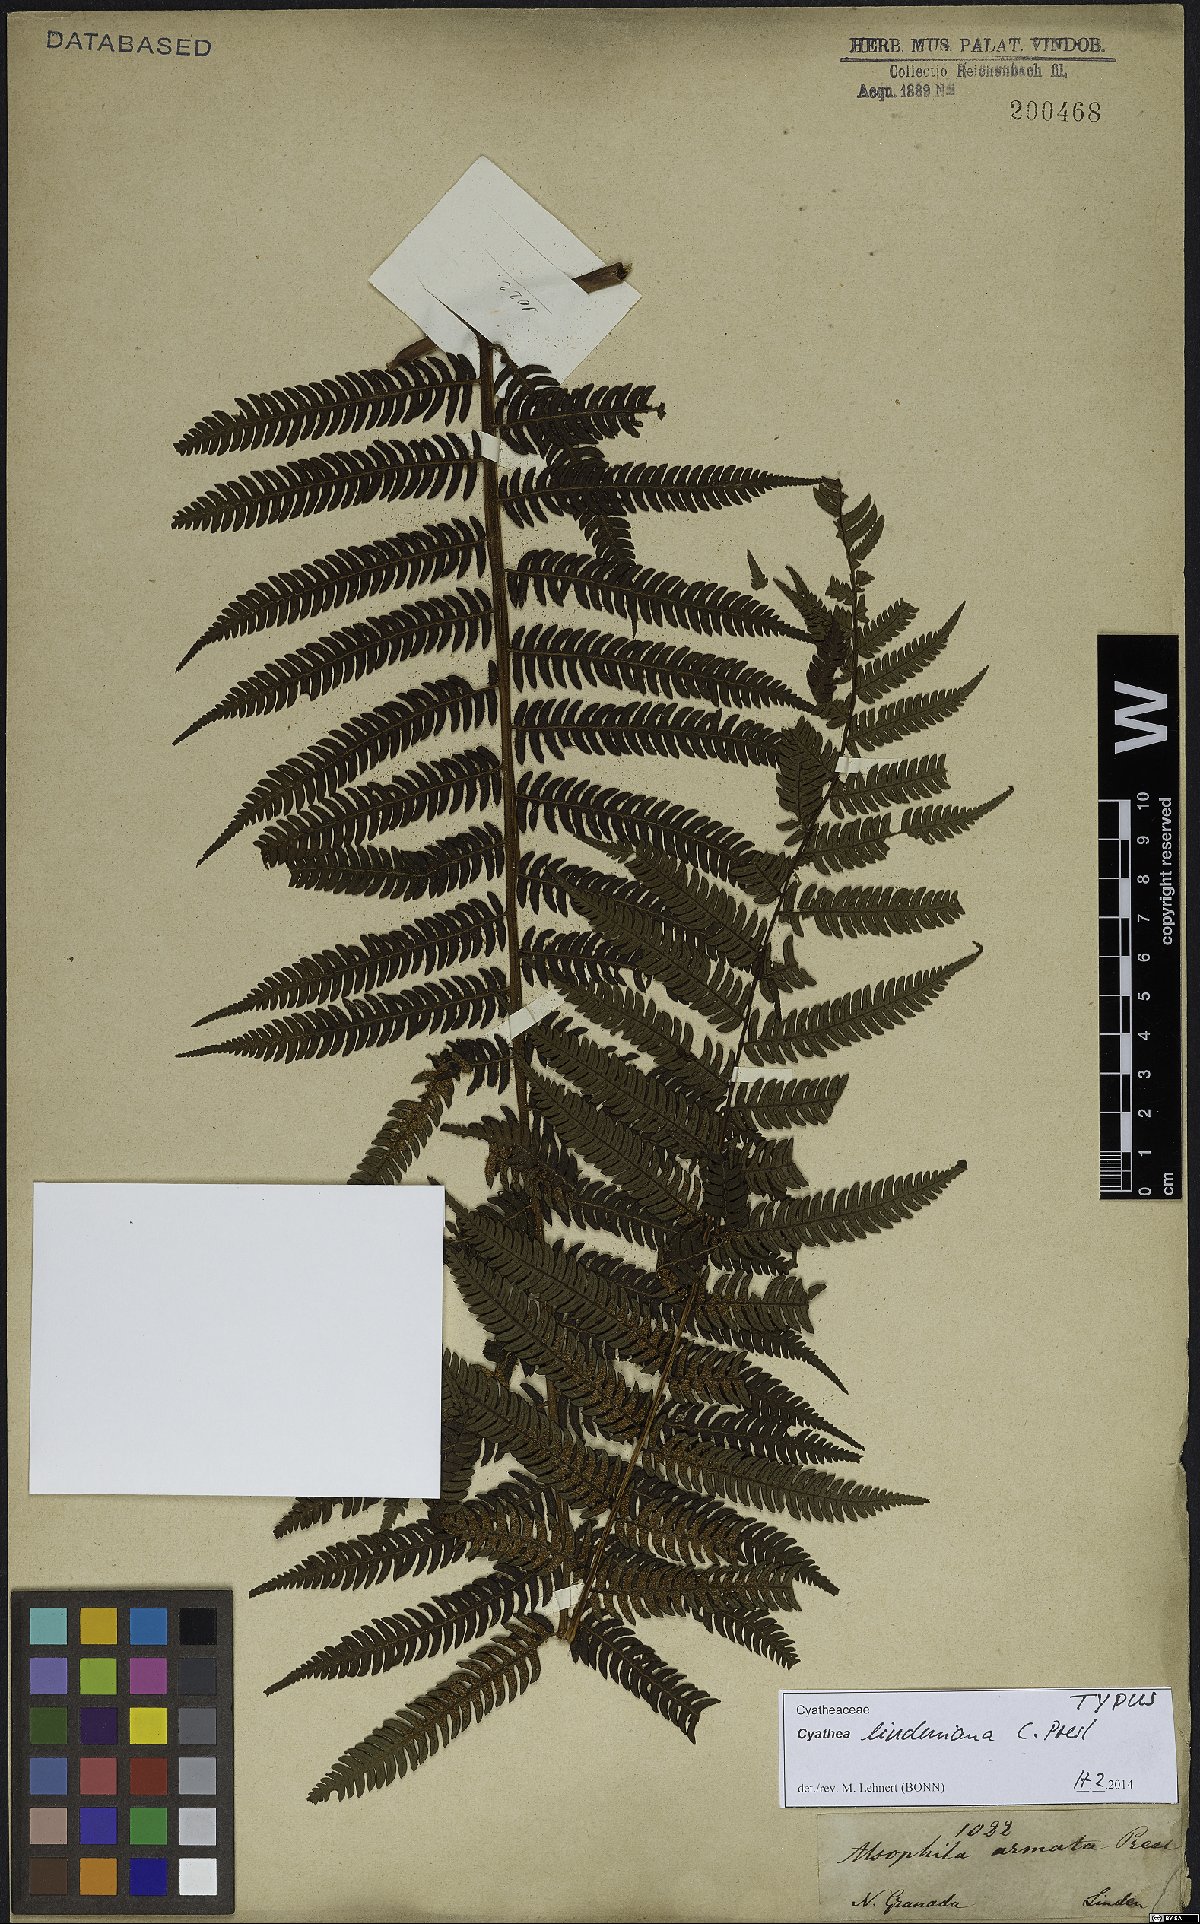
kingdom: Plantae
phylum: Tracheophyta
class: Polypodiopsida
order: Cyatheales
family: Cyatheaceae
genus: Cyathea
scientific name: Cyathea lindeniana
